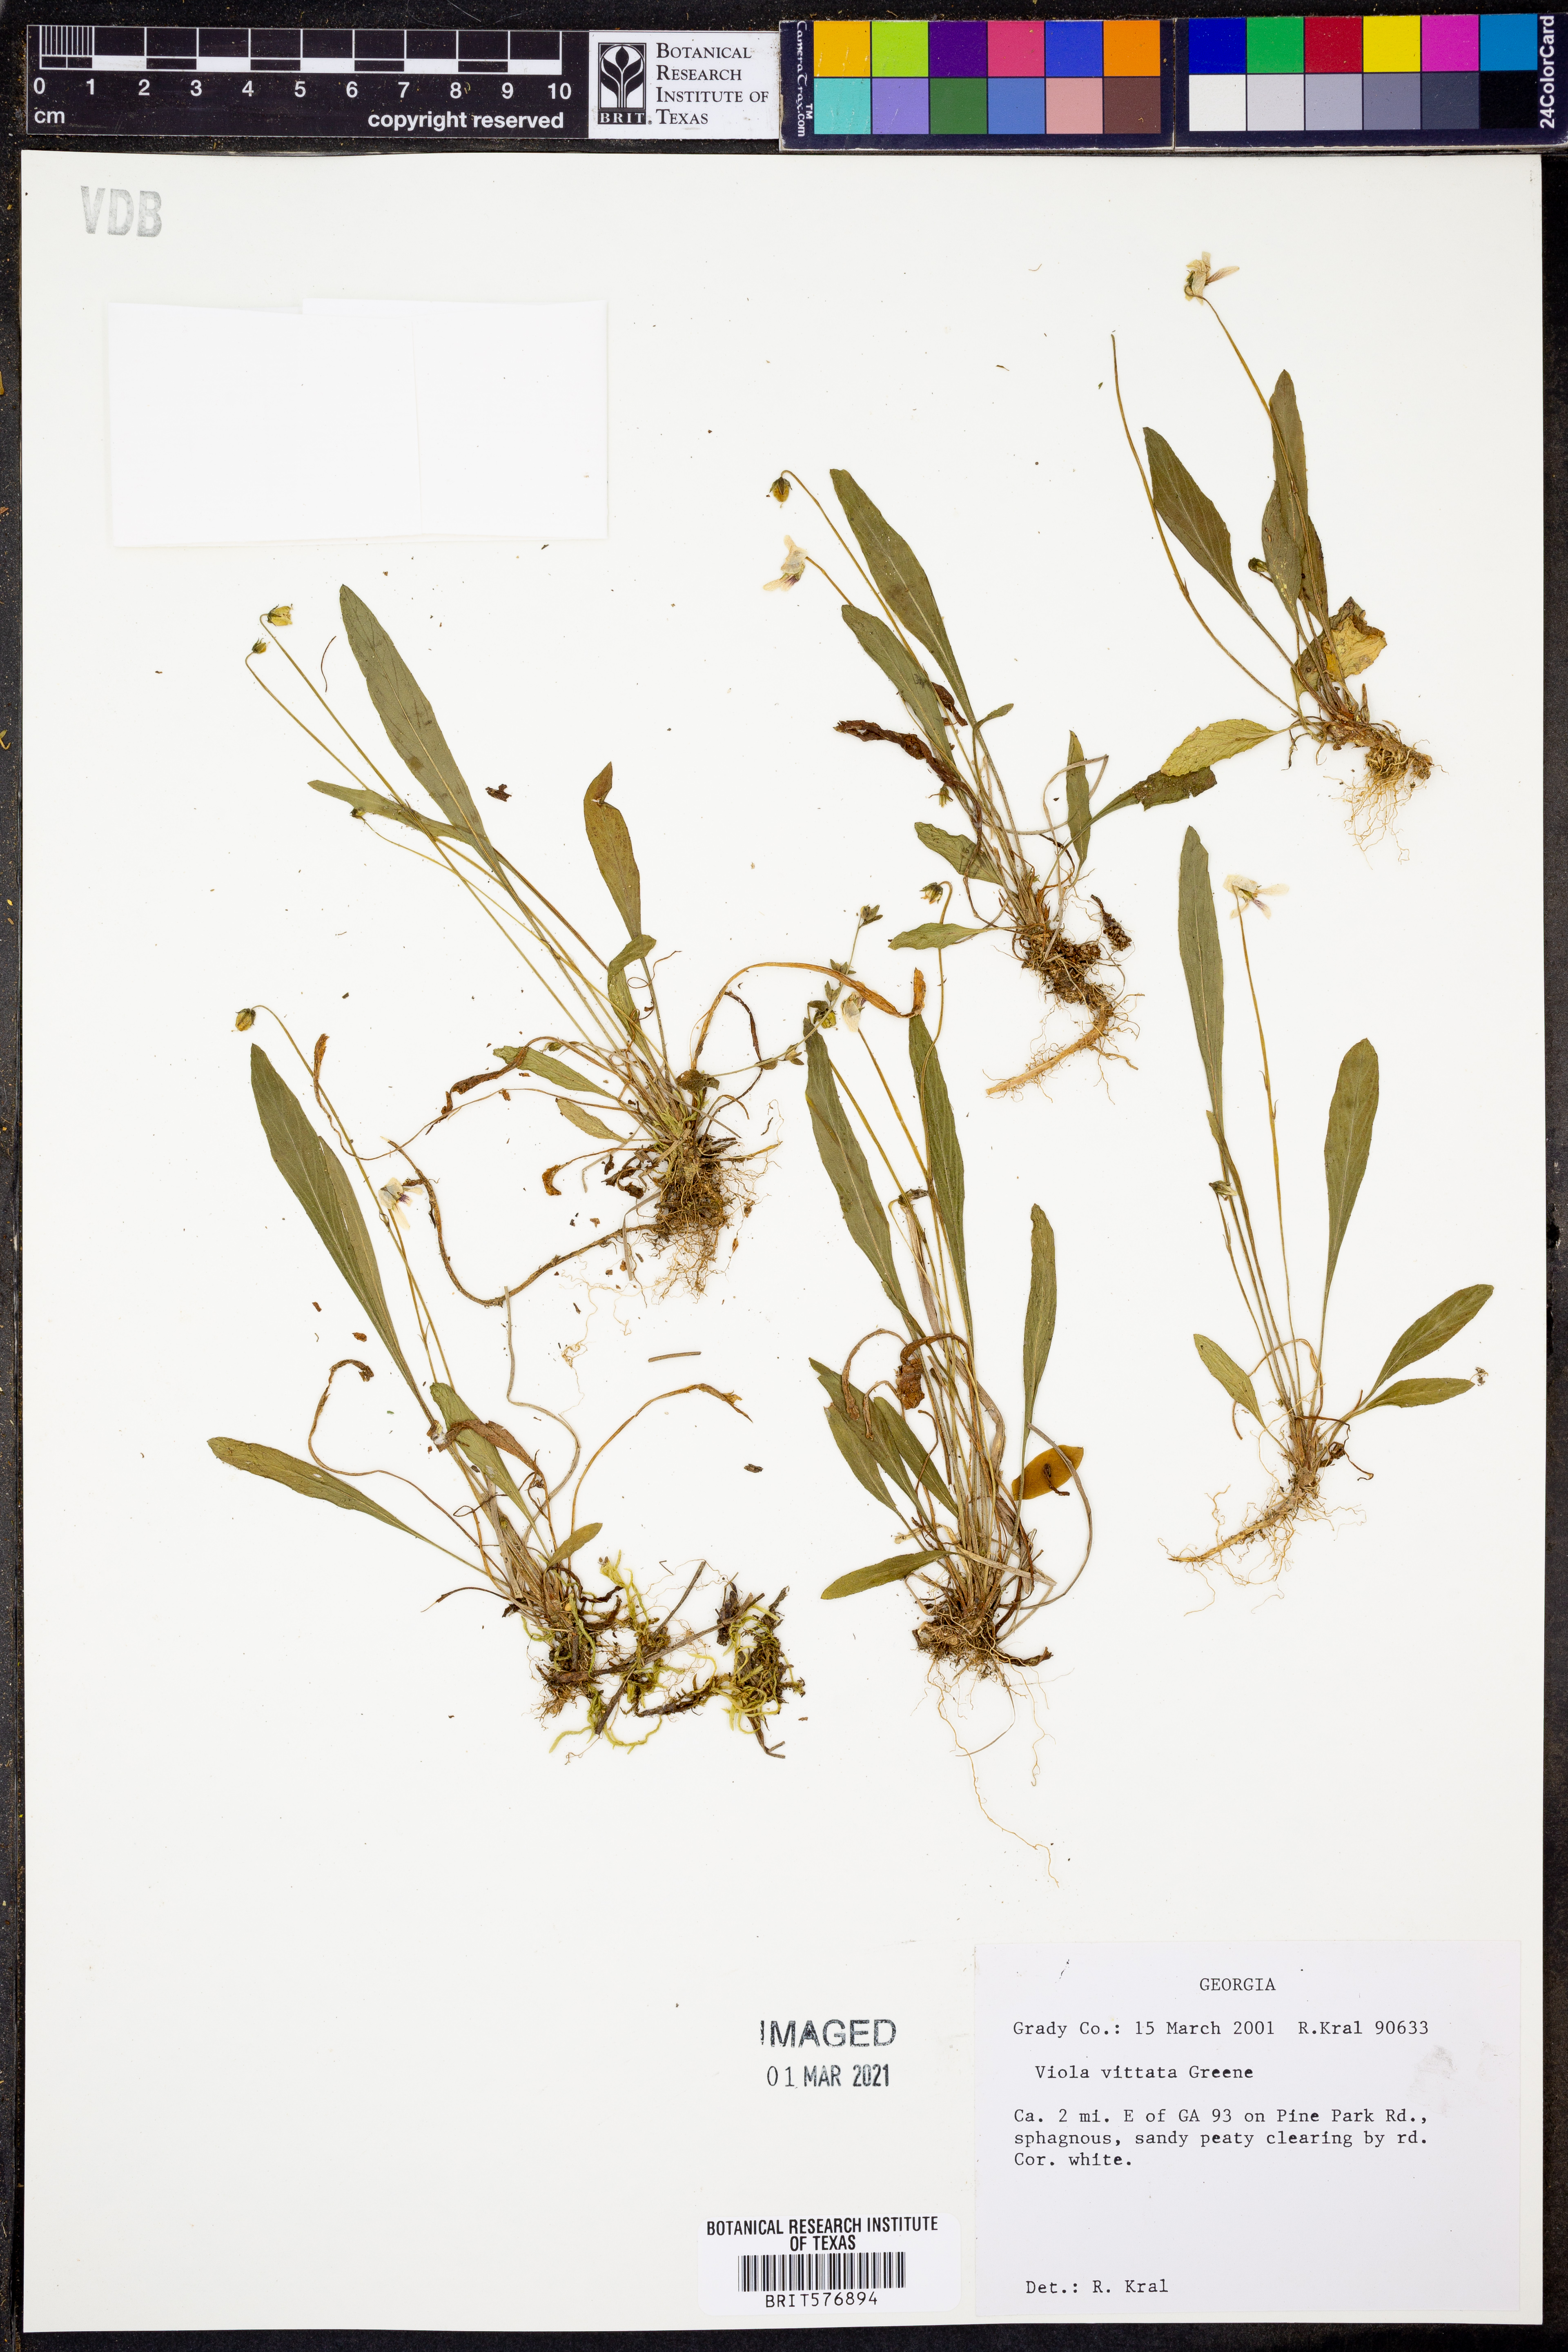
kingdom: Plantae
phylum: Tracheophyta
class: Magnoliopsida
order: Malpighiales
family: Violaceae
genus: Viola
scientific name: Viola vittata
